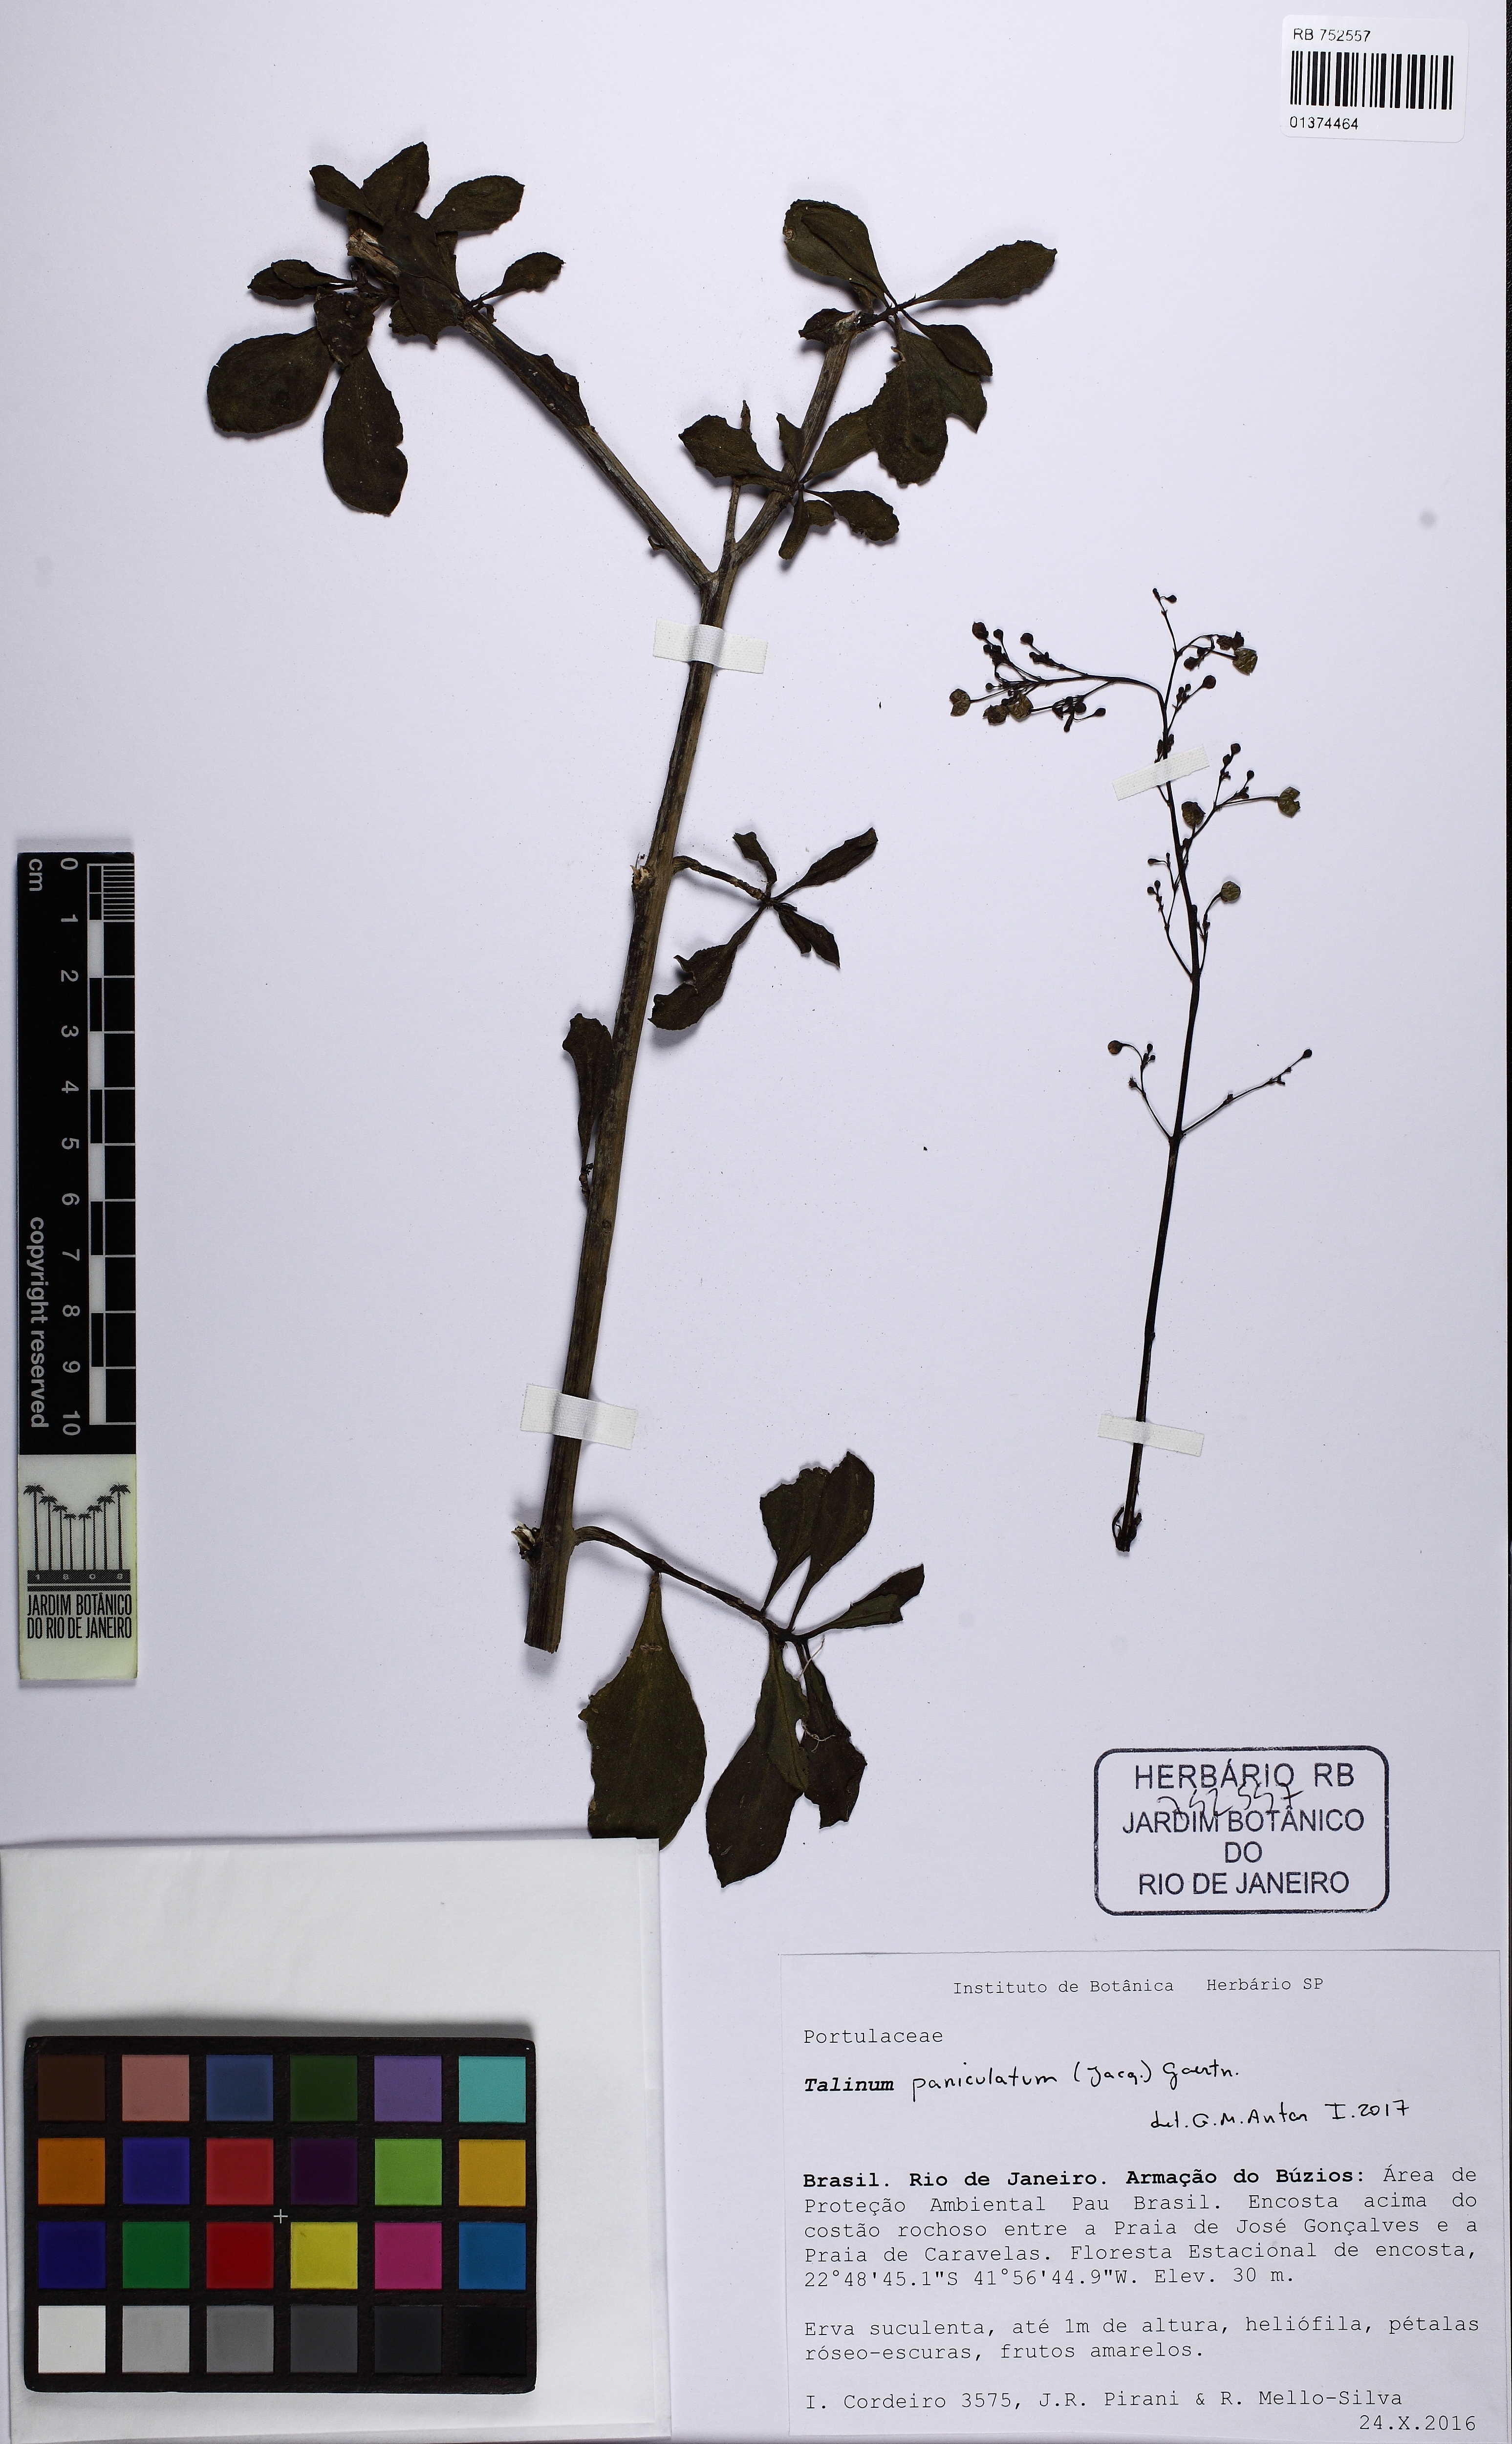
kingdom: Plantae
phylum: Tracheophyta
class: Magnoliopsida
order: Caryophyllales
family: Talinaceae
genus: Talinum
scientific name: Talinum paniculatum
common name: Jewels of opar
